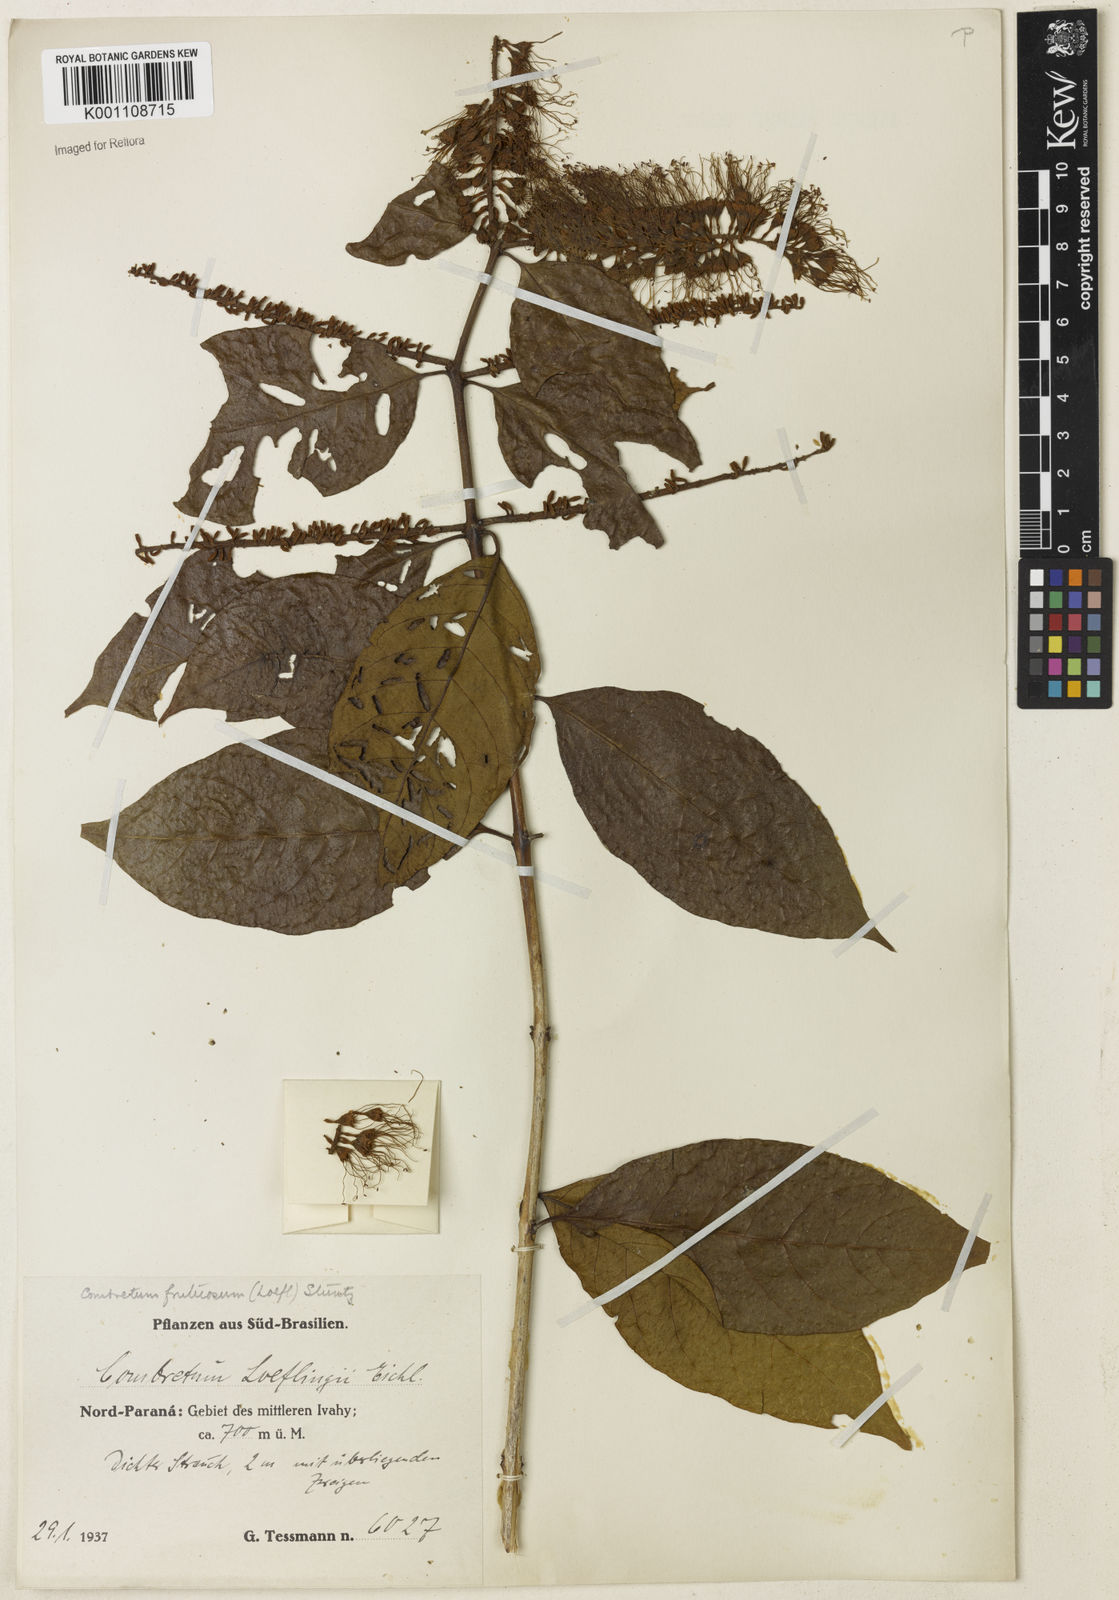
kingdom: Plantae
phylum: Tracheophyta
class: Magnoliopsida
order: Myrtales
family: Combretaceae
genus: Combretum
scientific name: Combretum fruticosum
